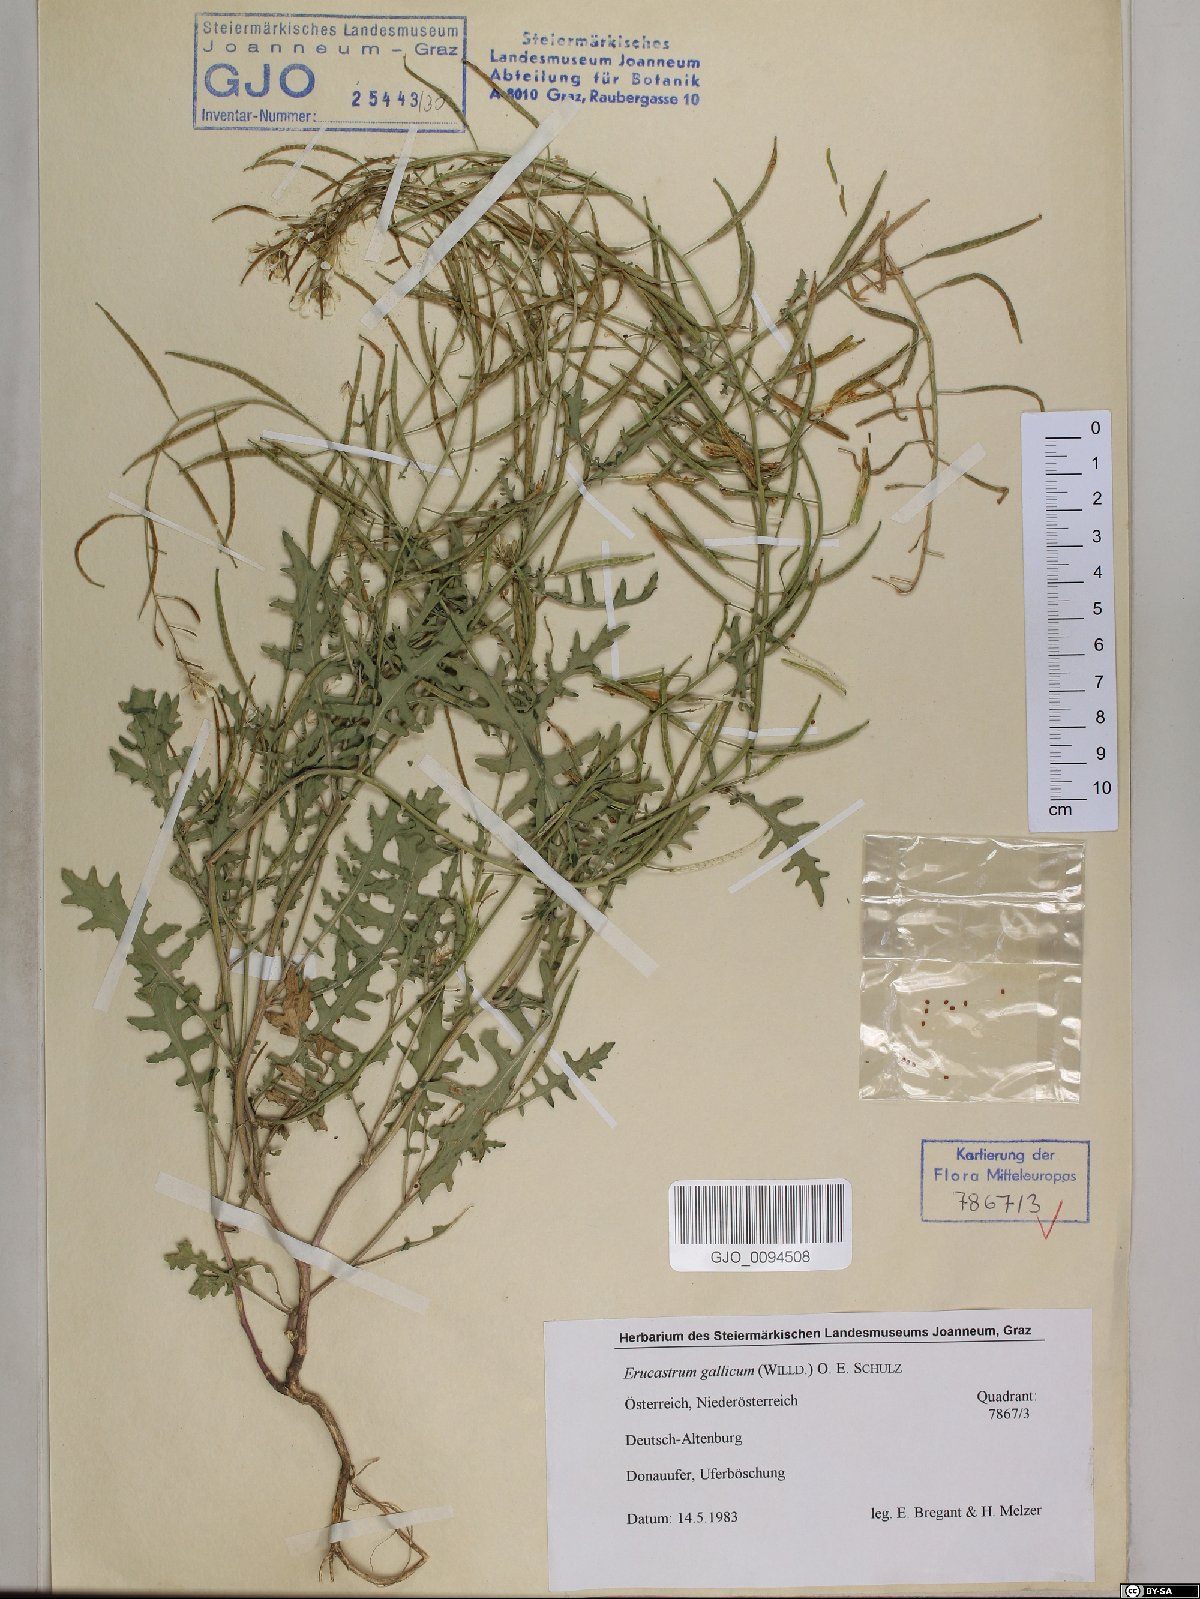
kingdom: Plantae
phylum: Tracheophyta
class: Magnoliopsida
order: Brassicales
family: Brassicaceae
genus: Erucastrum
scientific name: Erucastrum gallicum
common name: Hairy rocket
